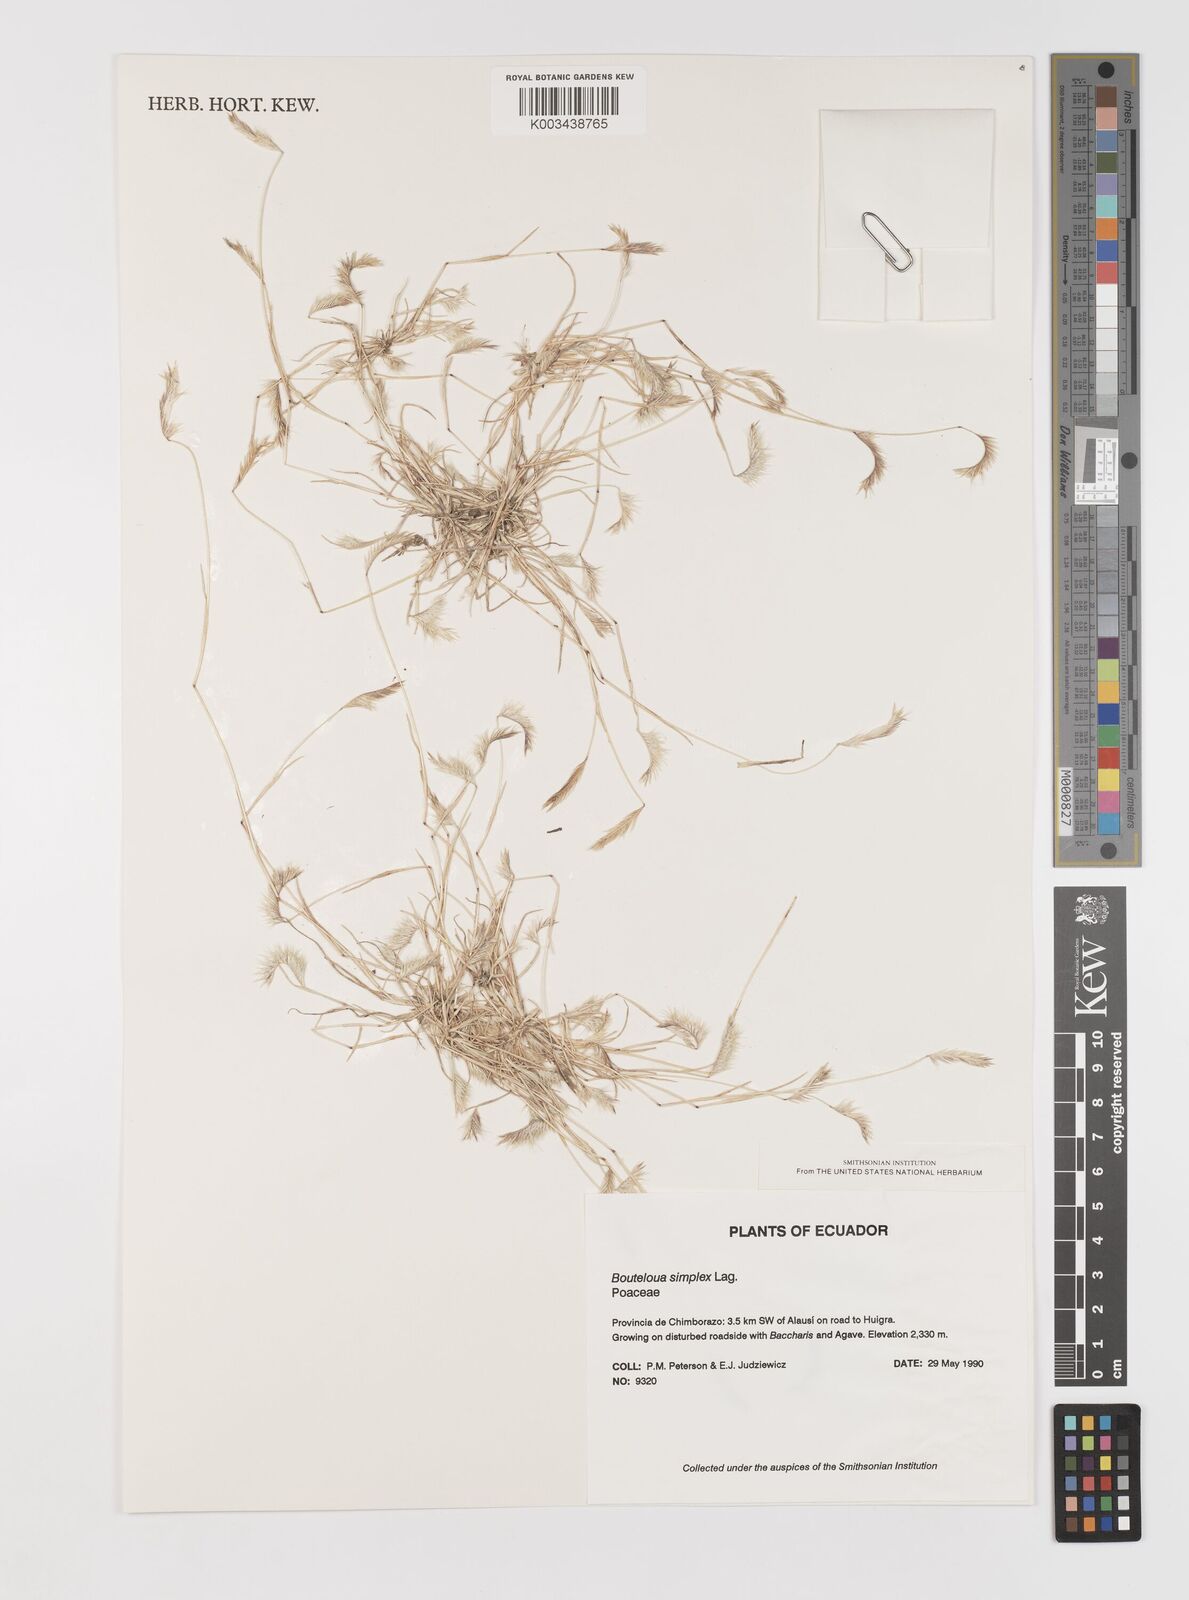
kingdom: Plantae
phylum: Tracheophyta
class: Liliopsida
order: Poales
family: Poaceae
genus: Bouteloua
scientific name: Bouteloua simplex
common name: Mat grama
